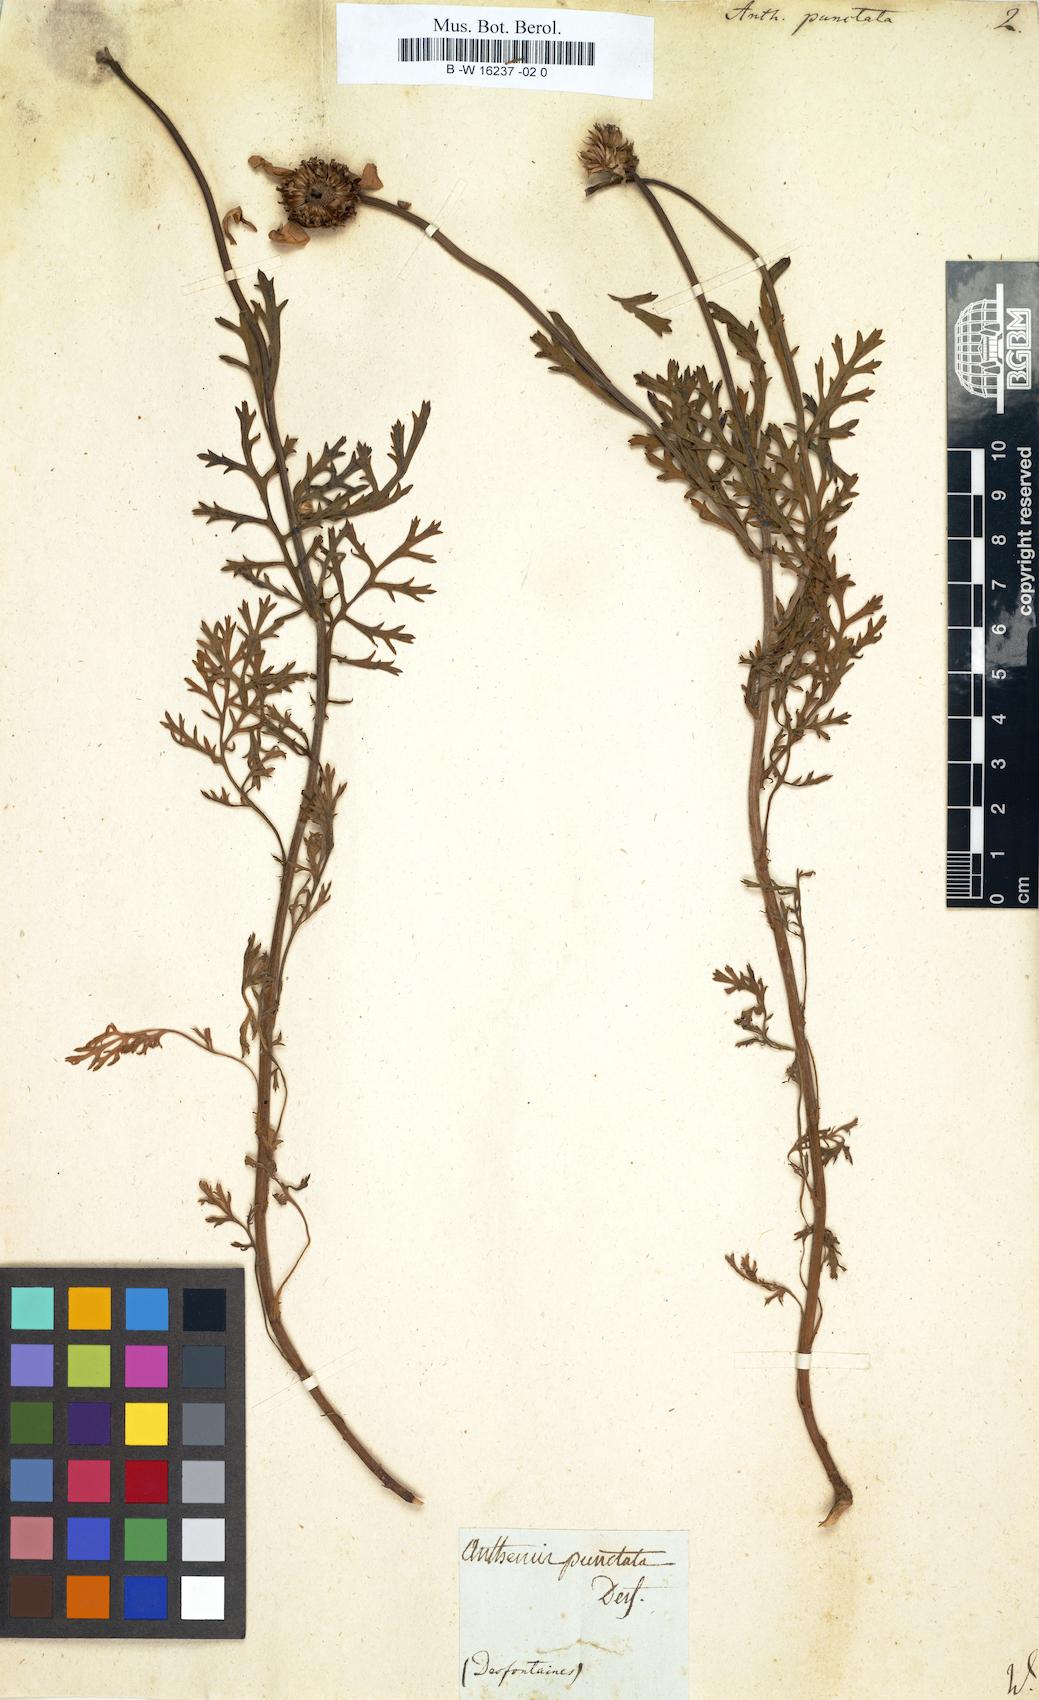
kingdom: Plantae
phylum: Tracheophyta
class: Magnoliopsida
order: Asterales
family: Asteraceae
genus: Anthemis
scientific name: Anthemis punctata
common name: Sicilian chamomile
